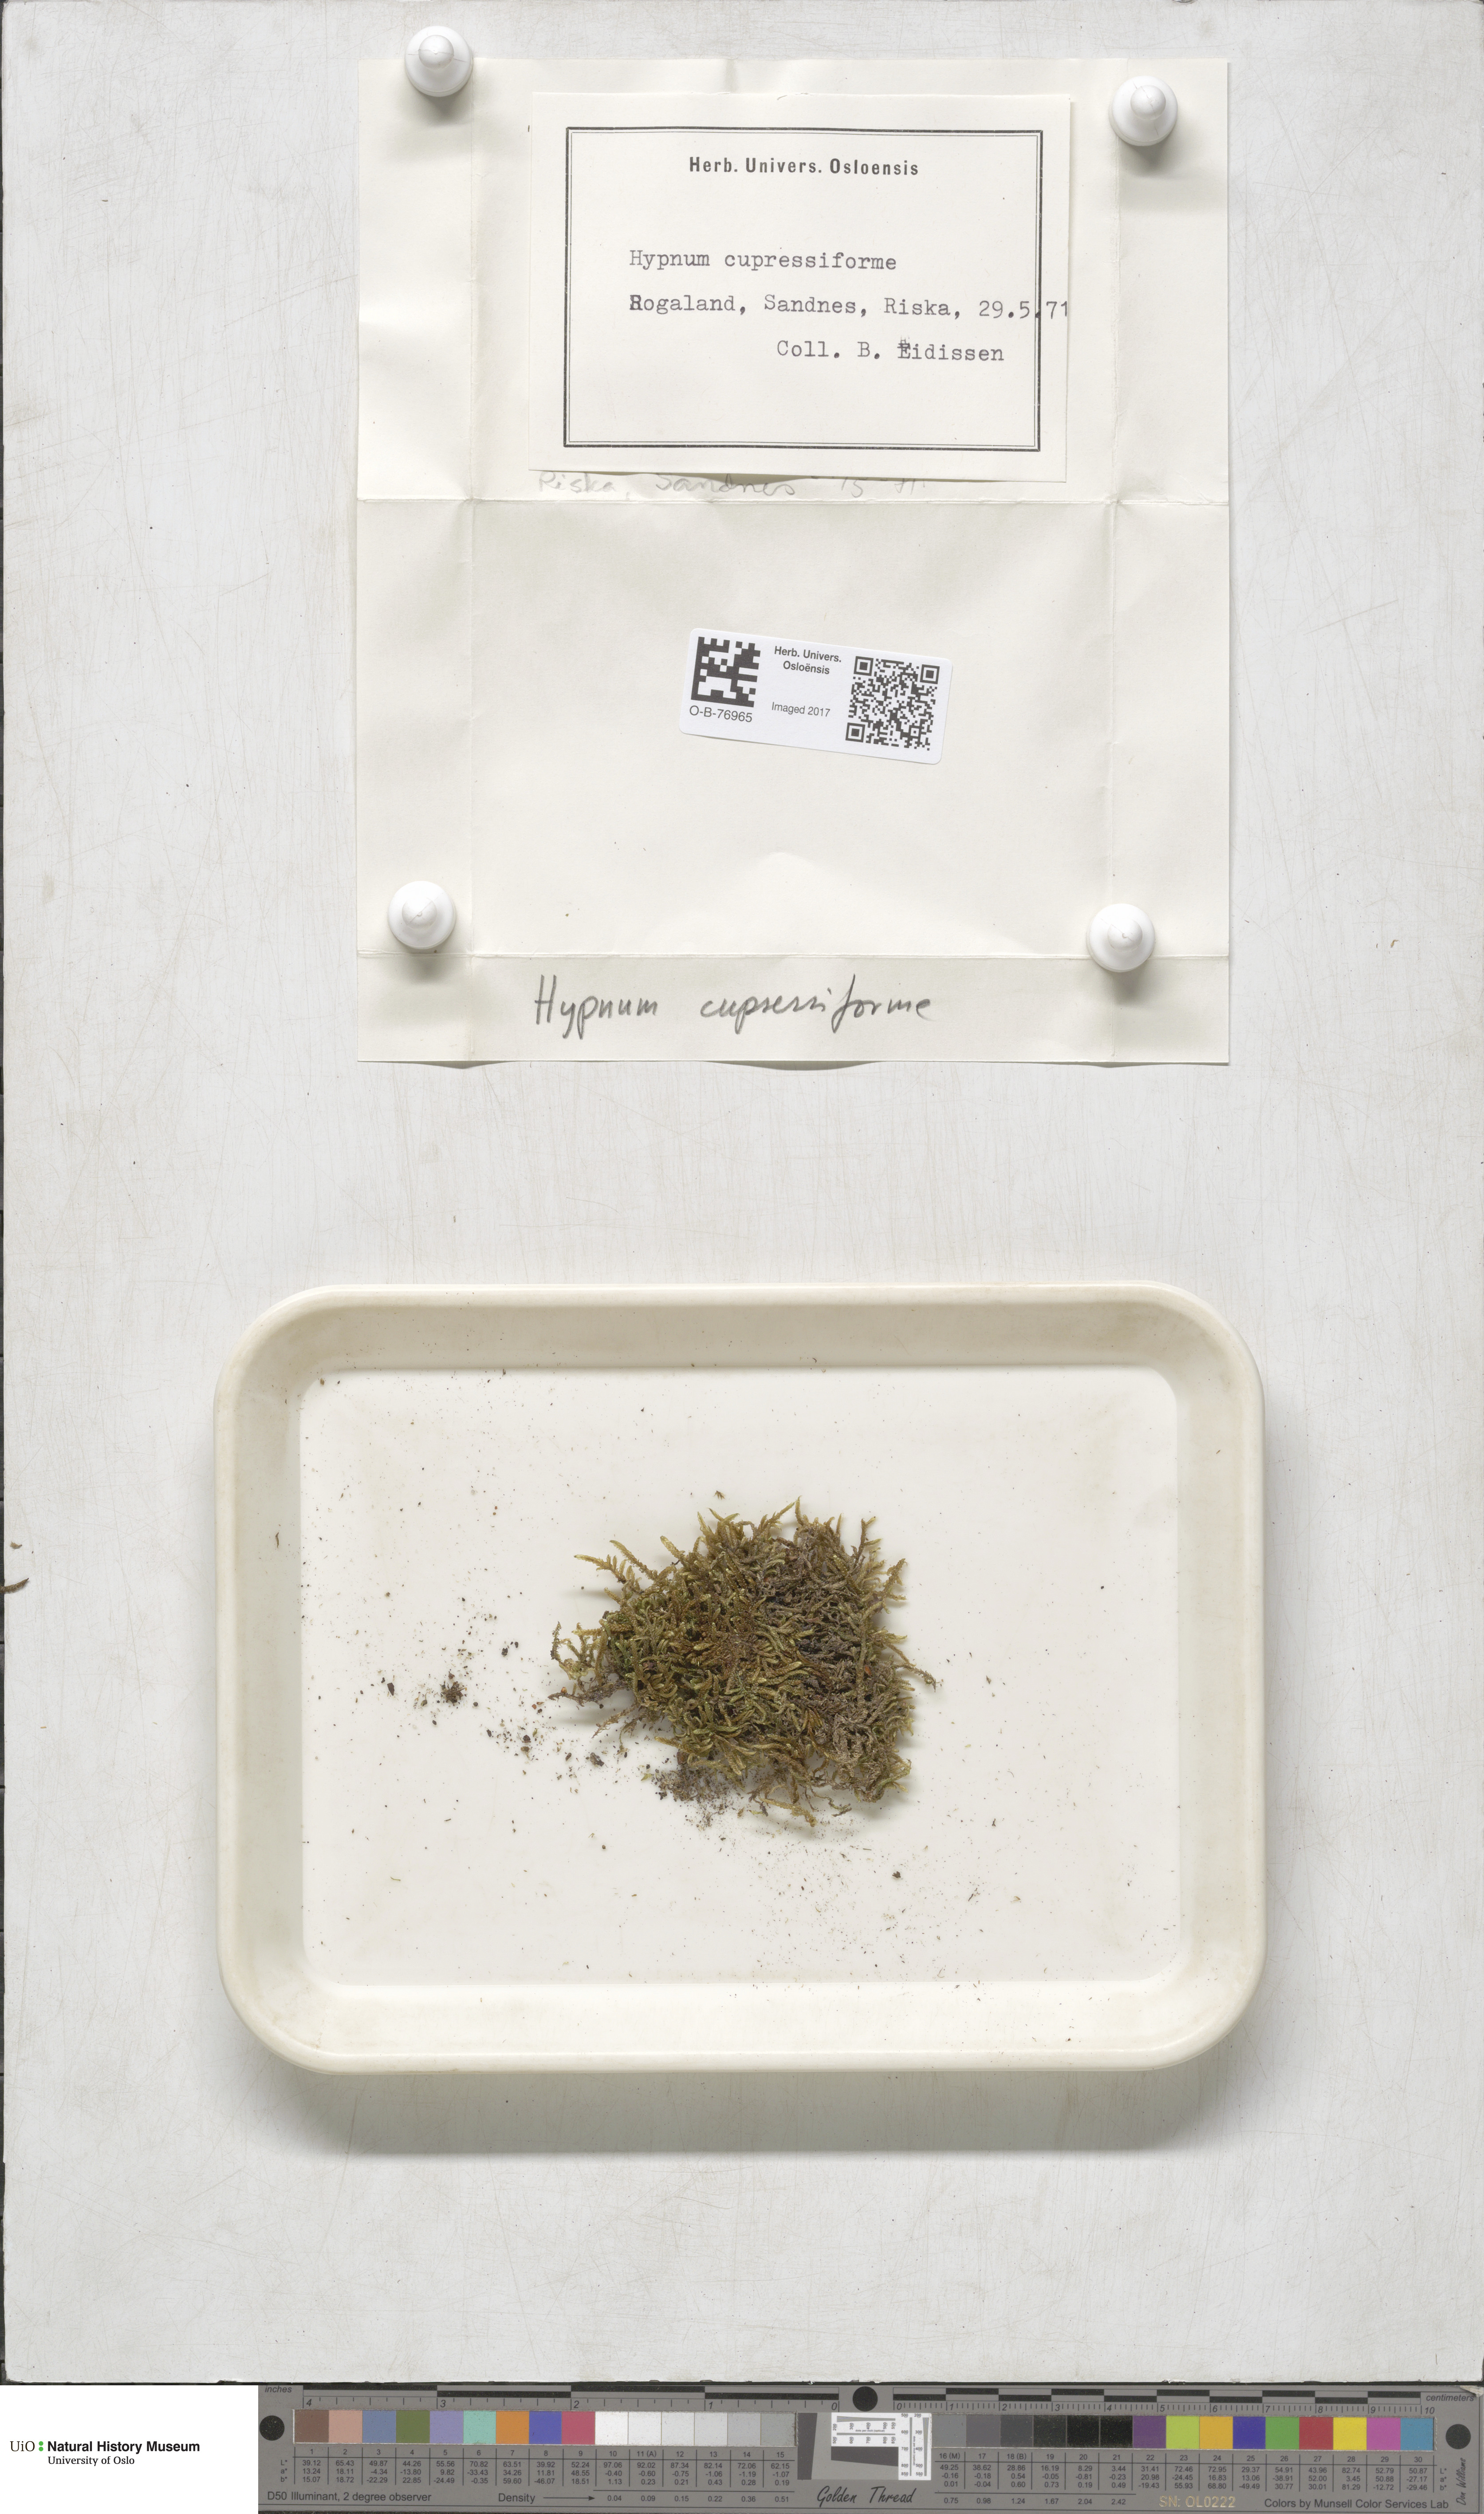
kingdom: Plantae
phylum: Bryophyta
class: Bryopsida
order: Hypnales
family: Hypnaceae
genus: Hypnum
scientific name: Hypnum cupressiforme
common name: Cypress-leaved plait-moss
